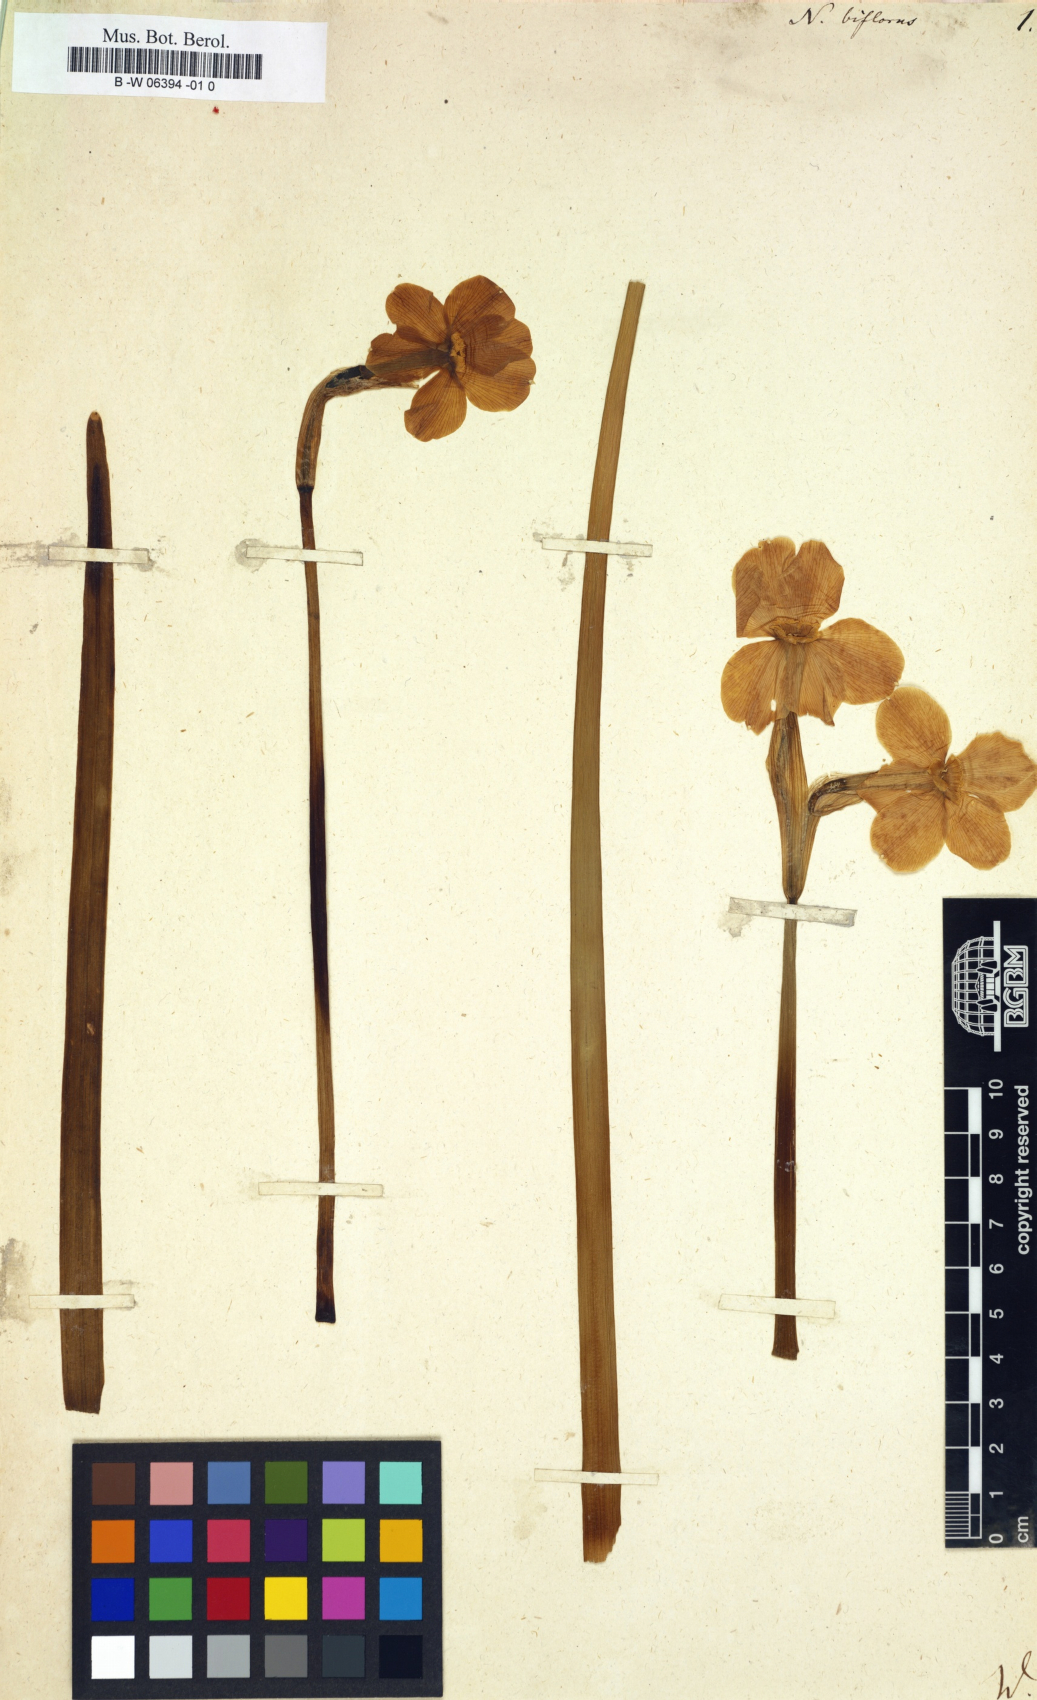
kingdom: Plantae
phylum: Tracheophyta
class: Liliopsida
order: Asparagales
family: Amaryllidaceae
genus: Narcissus
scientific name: Narcissus biflorus
